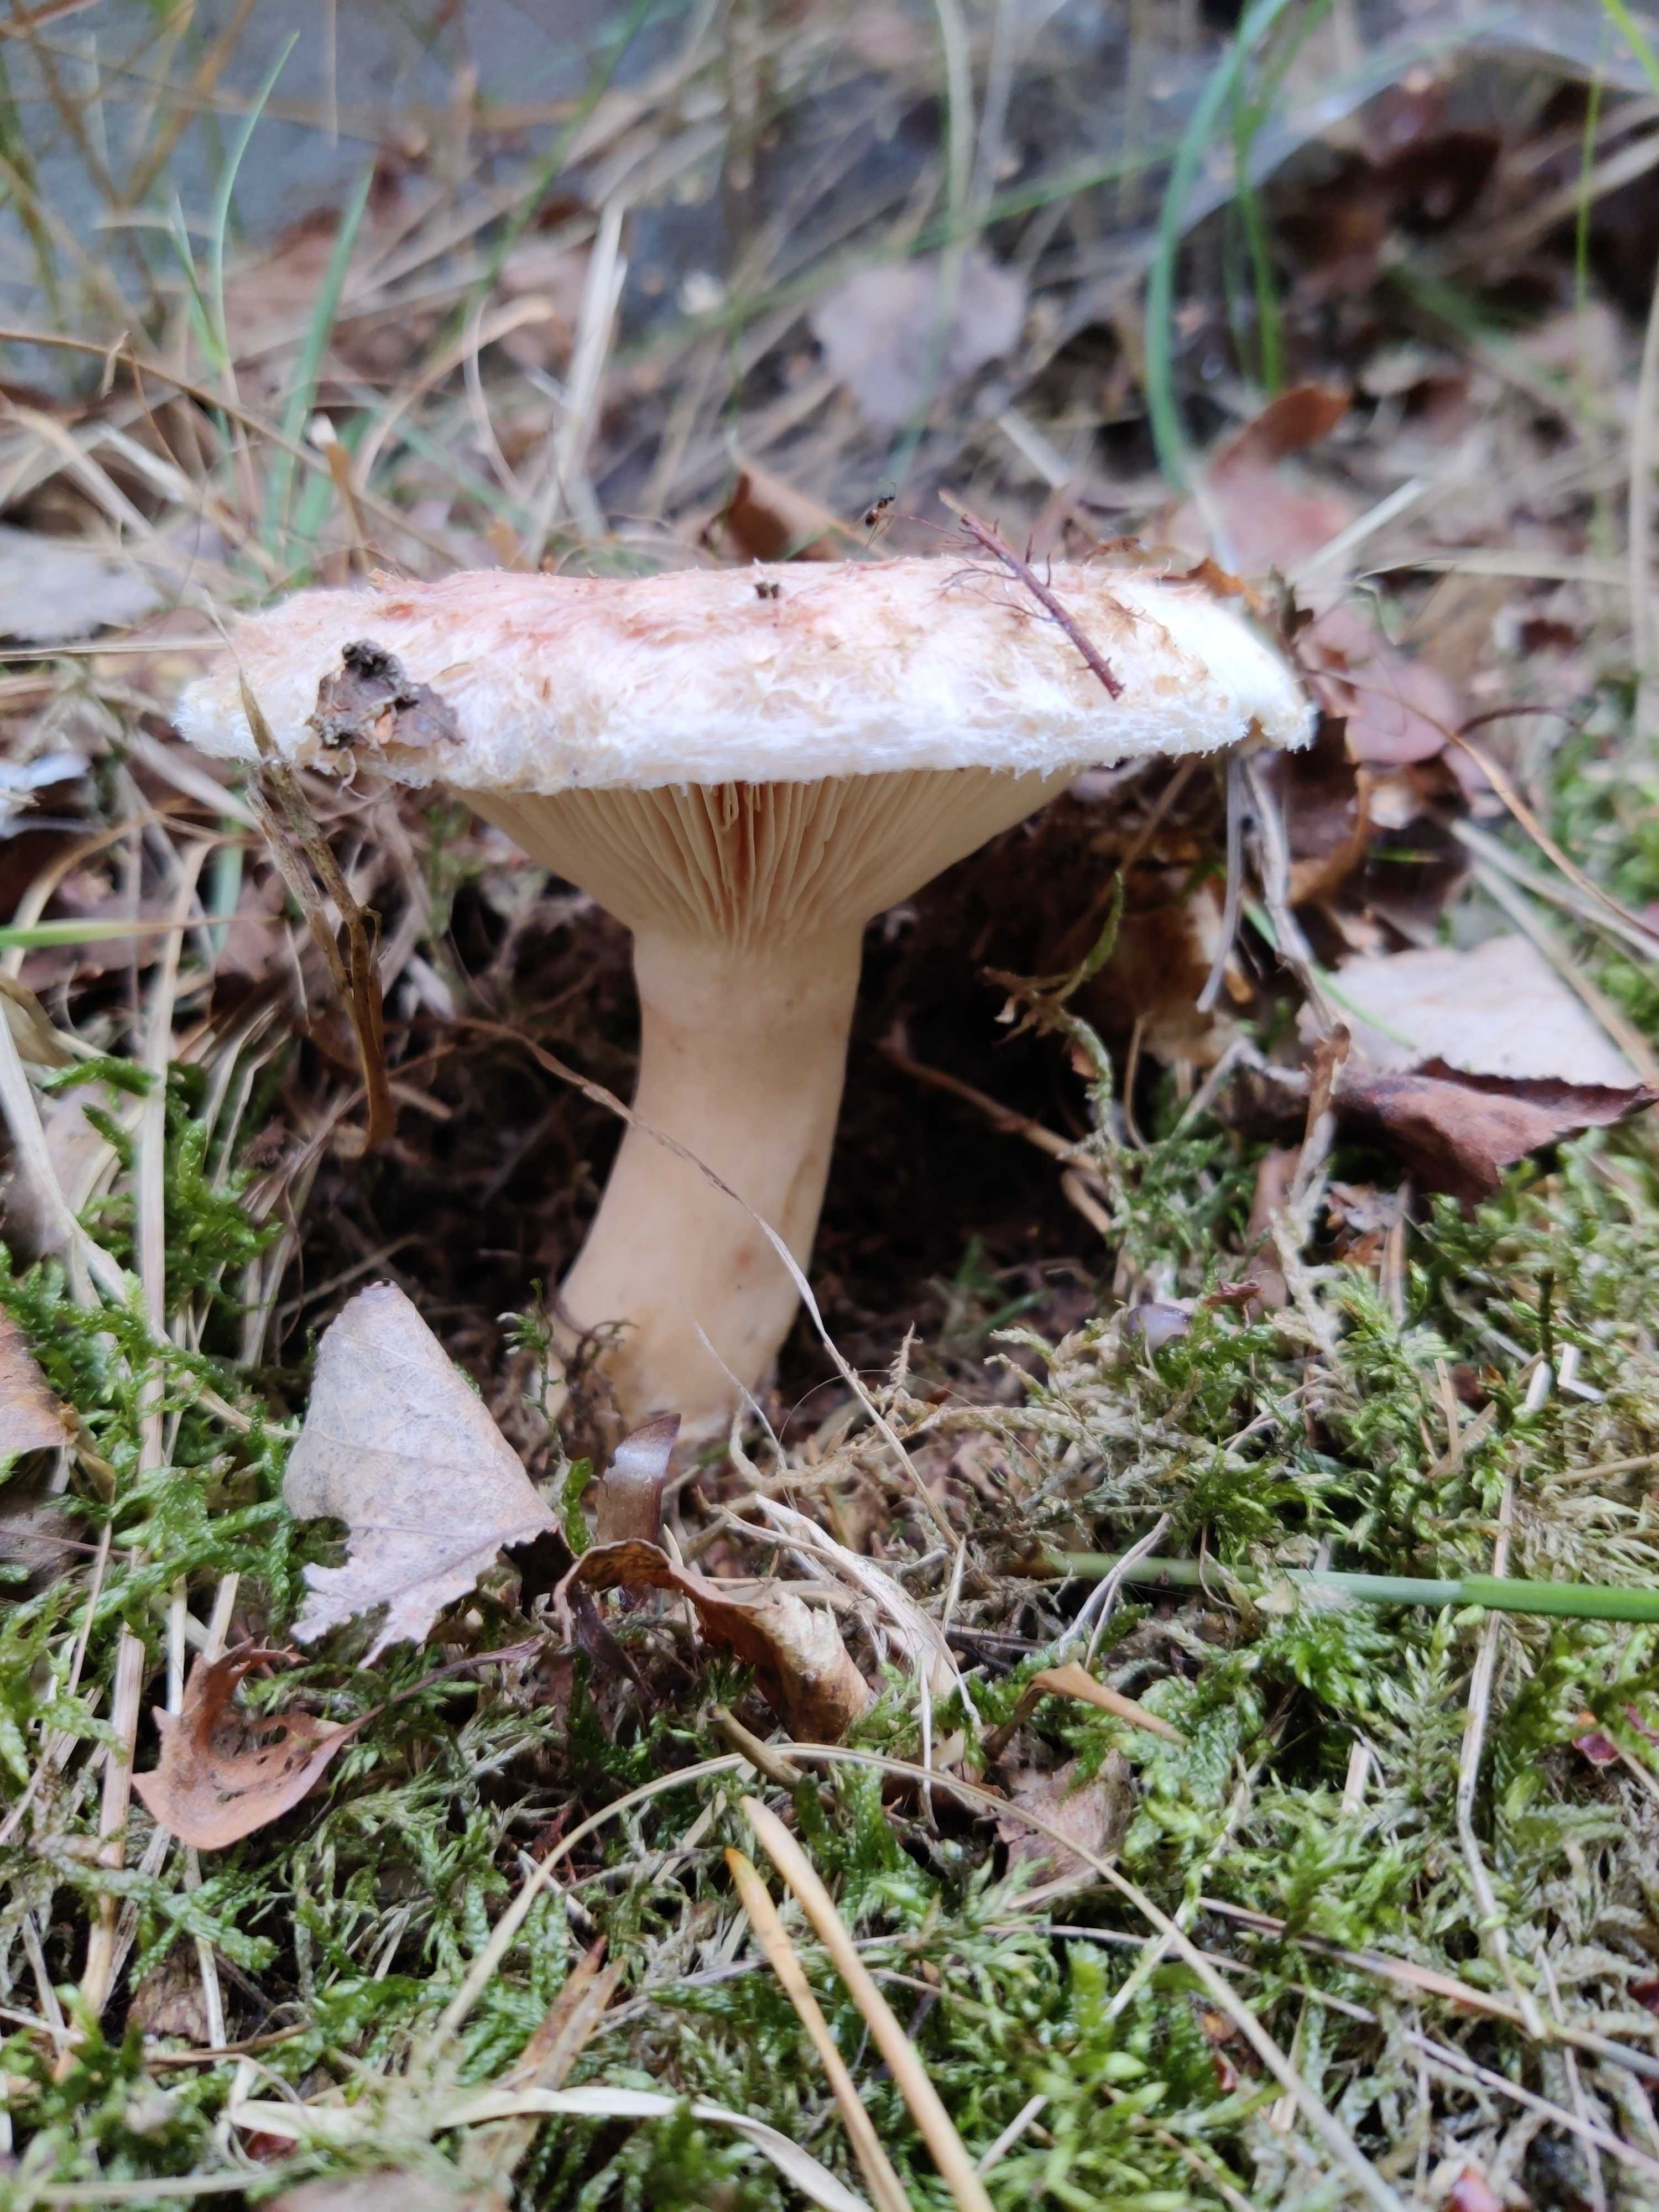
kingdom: Fungi
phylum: Basidiomycota
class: Agaricomycetes
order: Russulales
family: Russulaceae
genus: Lactarius
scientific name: Lactarius pubescens
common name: dunet mælkehat
